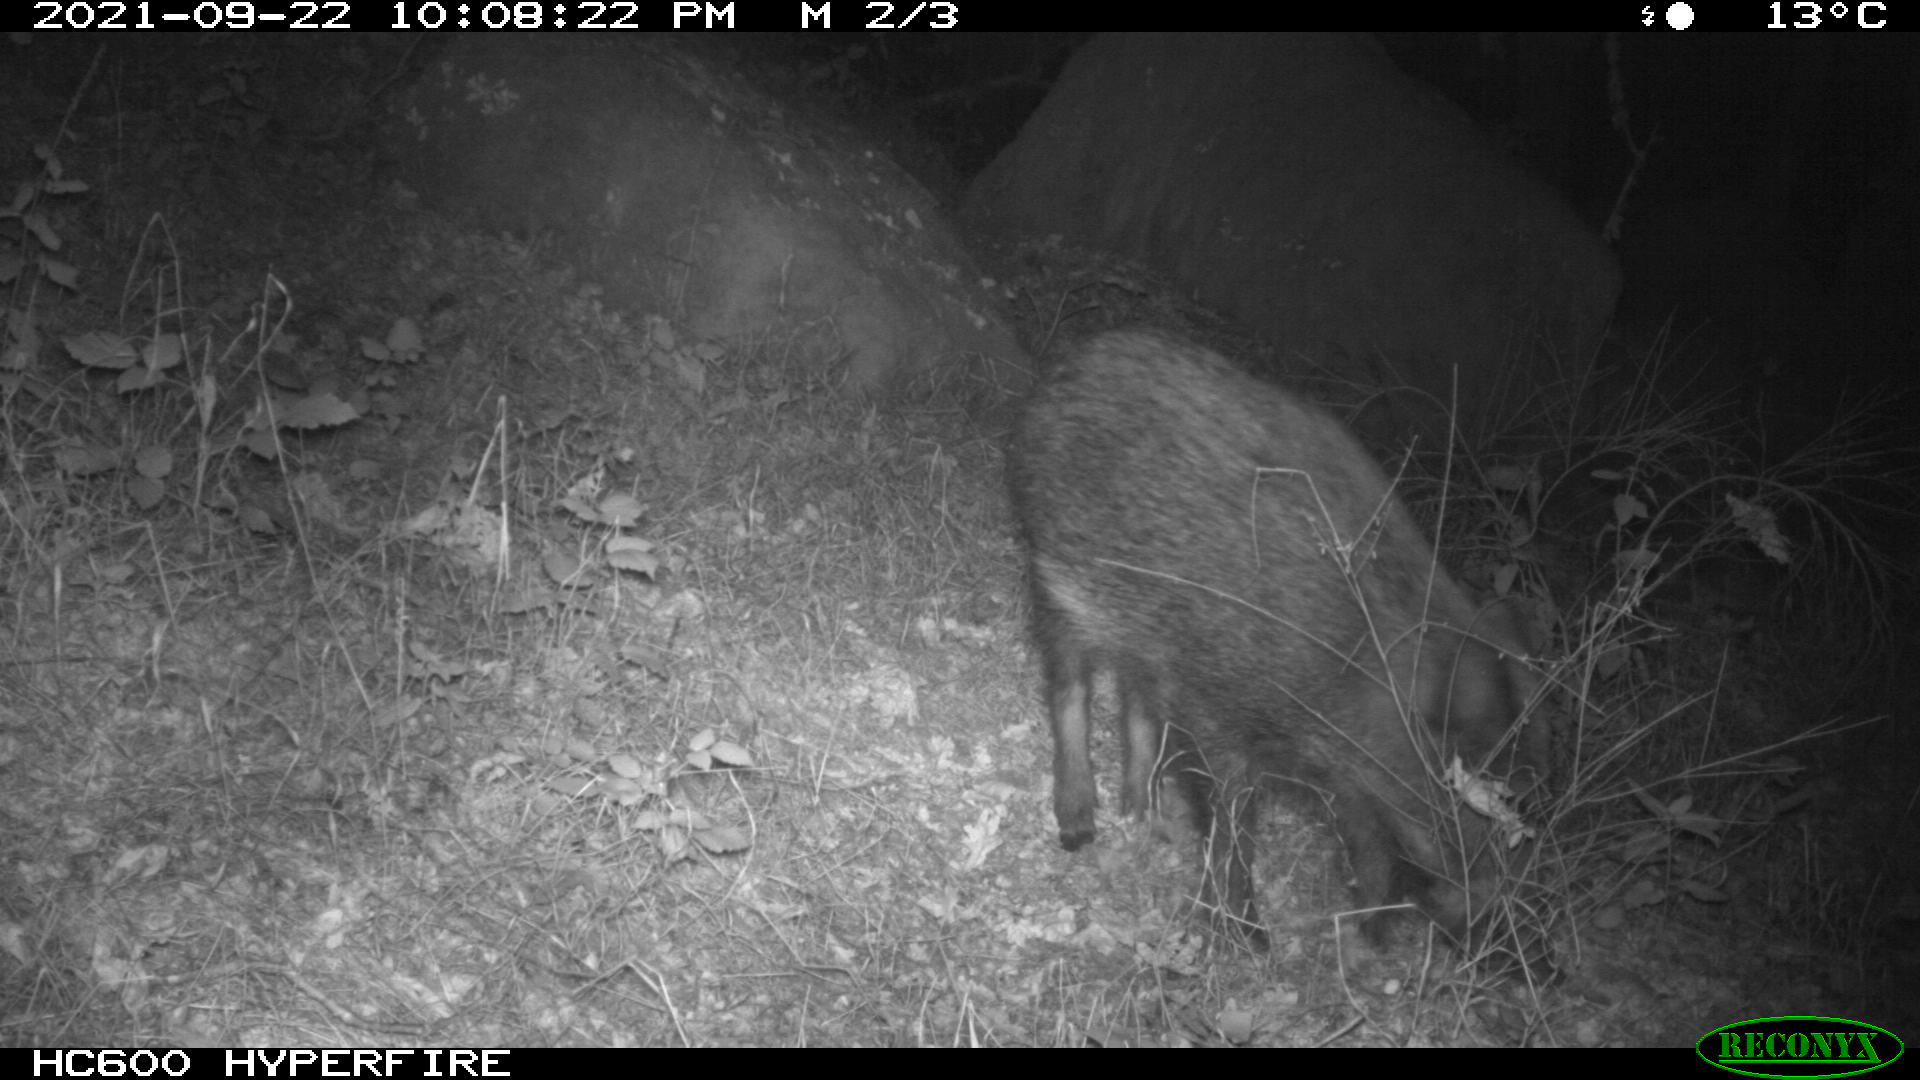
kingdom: Animalia
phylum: Chordata
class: Mammalia
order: Artiodactyla
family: Suidae
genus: Sus
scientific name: Sus scrofa
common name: Wild boar
